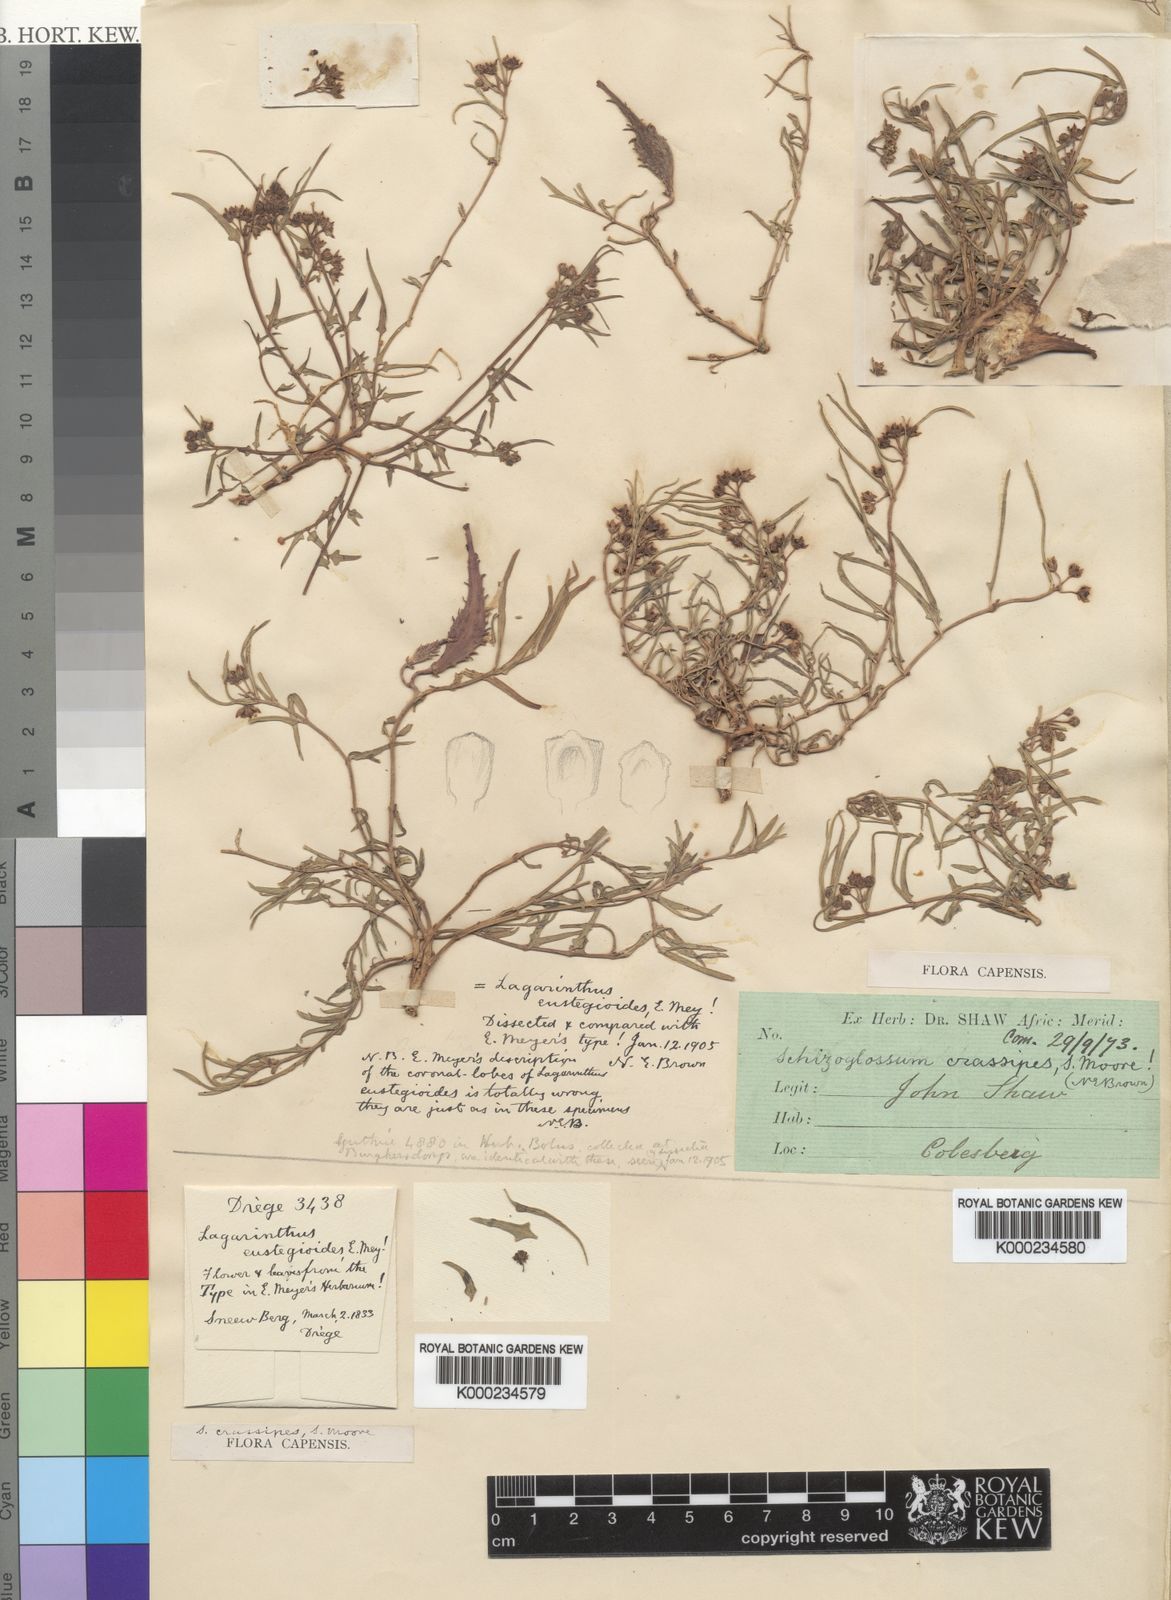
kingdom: Plantae
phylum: Tracheophyta
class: Magnoliopsida
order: Gentianales
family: Apocynaceae
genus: Stenostelma
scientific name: Stenostelma eustegioides
